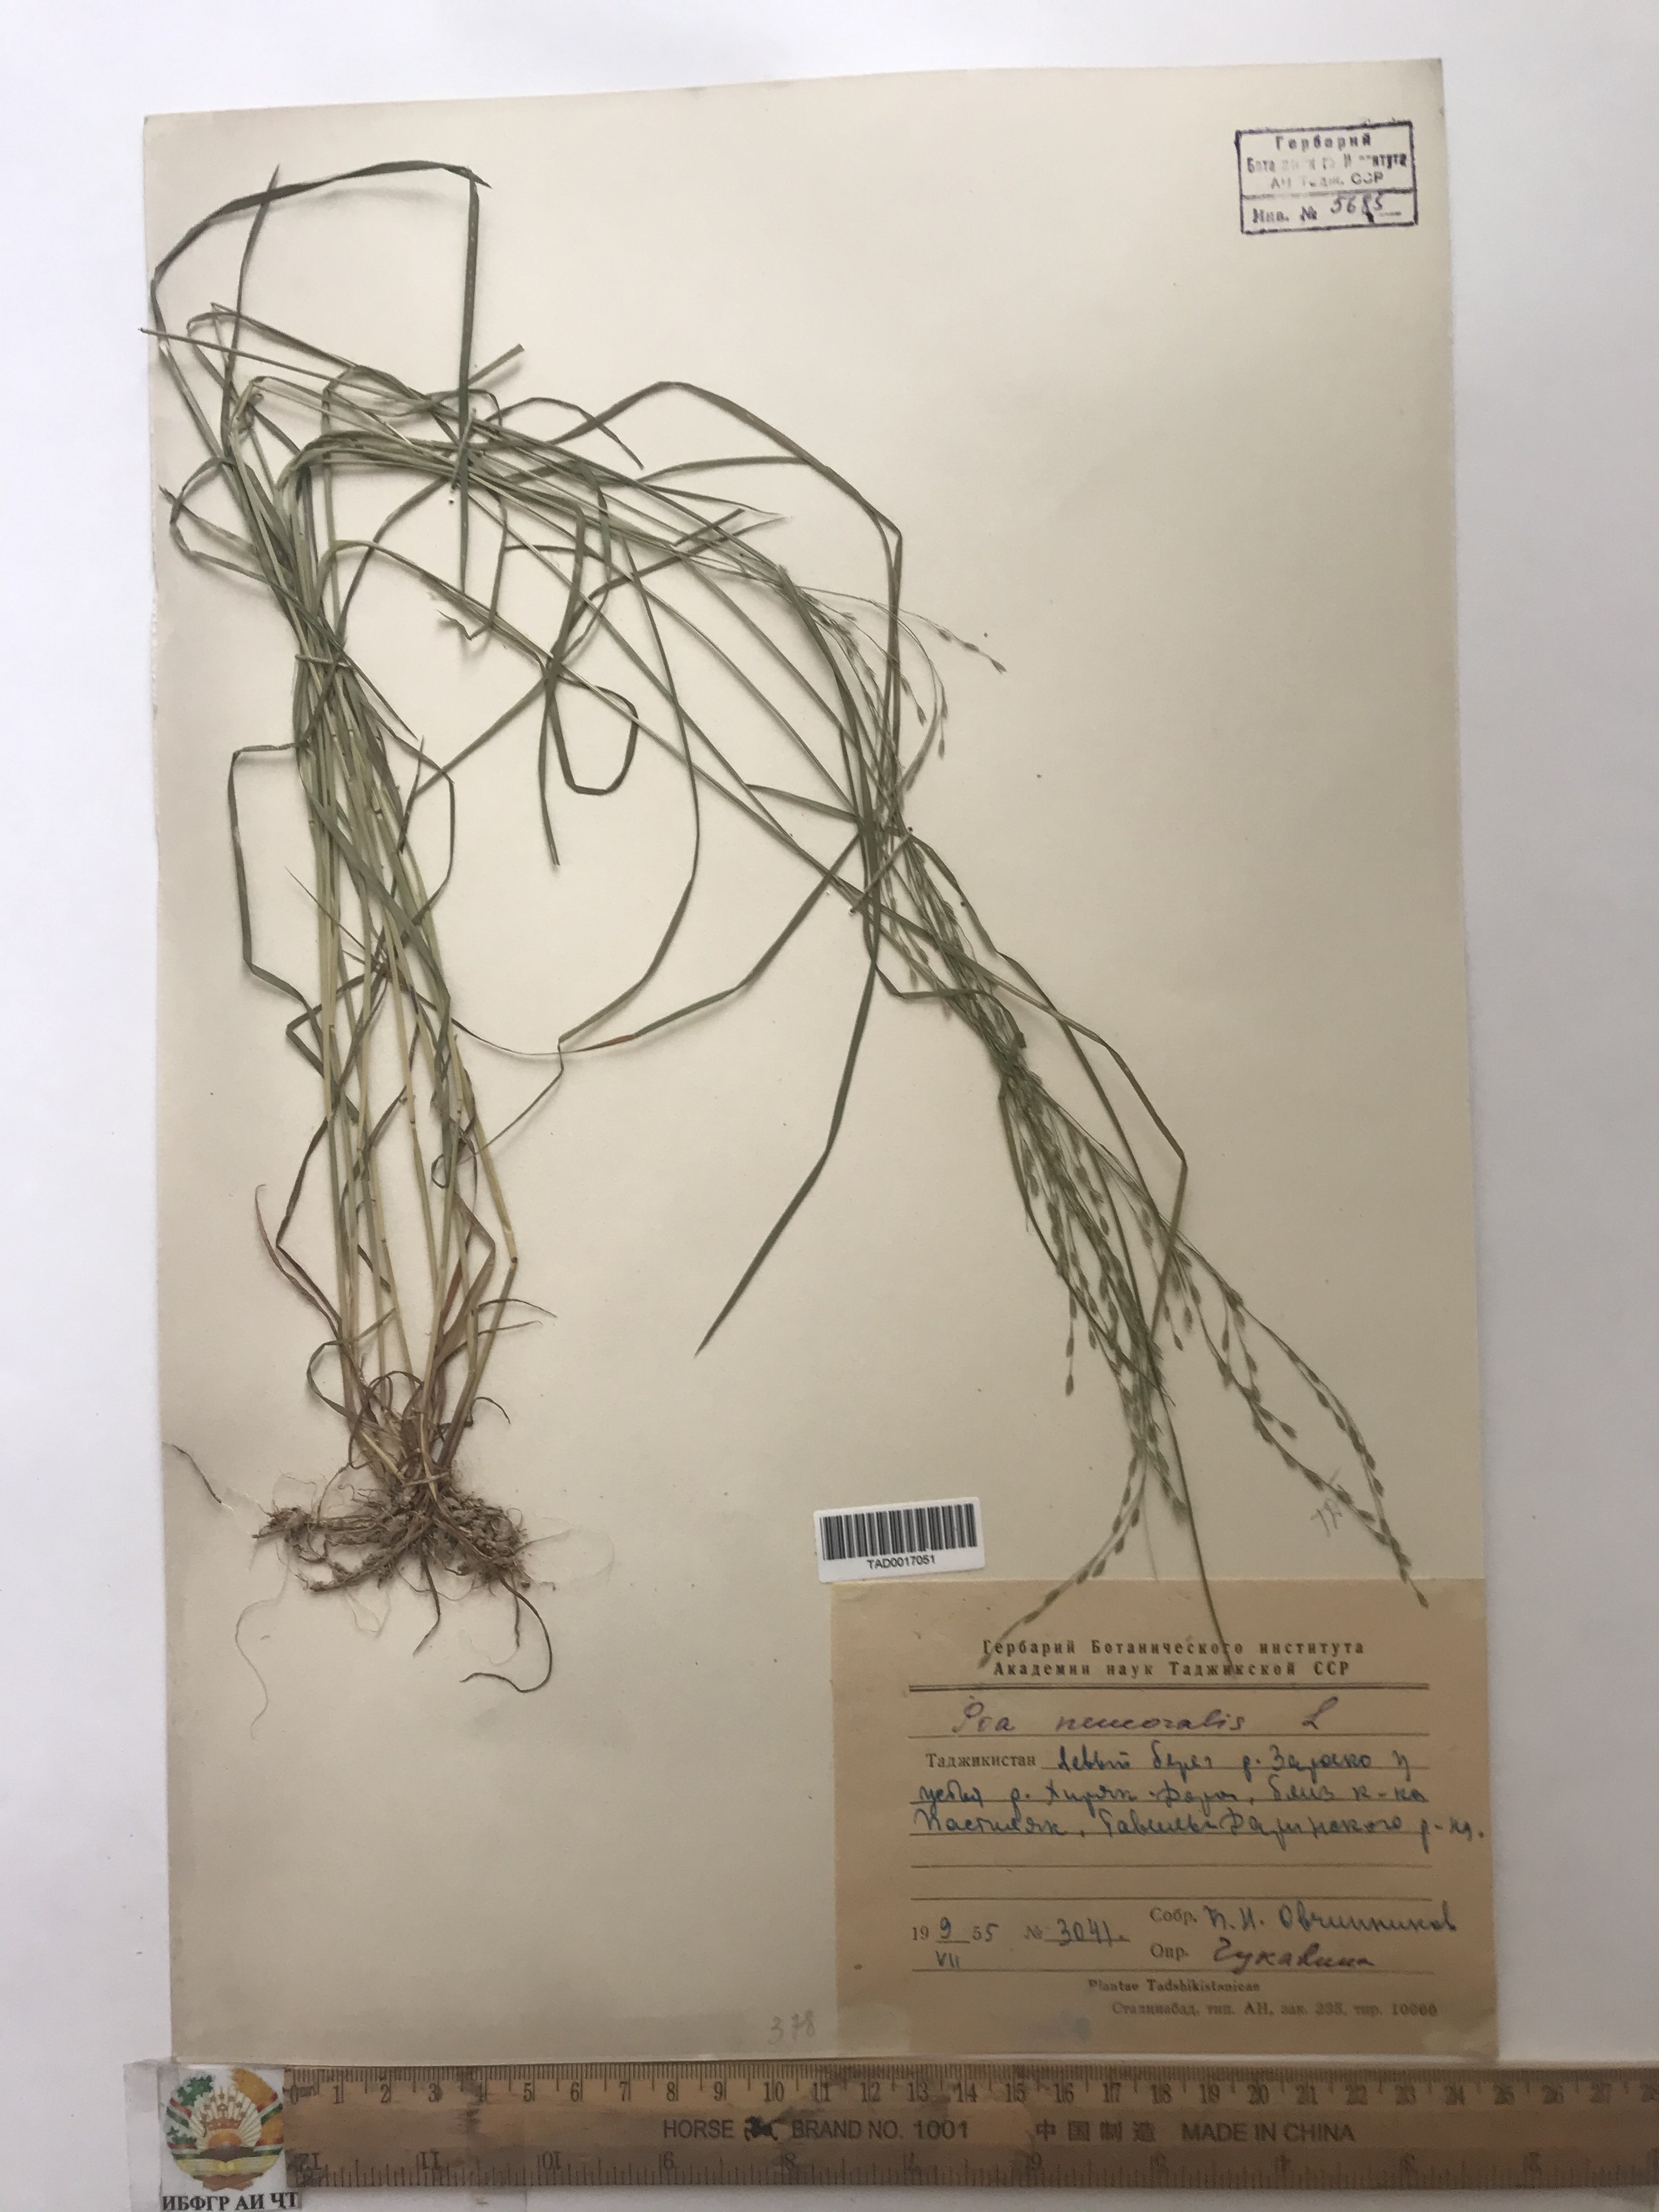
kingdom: Plantae
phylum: Tracheophyta
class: Liliopsida
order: Poales
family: Poaceae
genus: Poa
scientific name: Poa nemoralis
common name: Wood bluegrass
